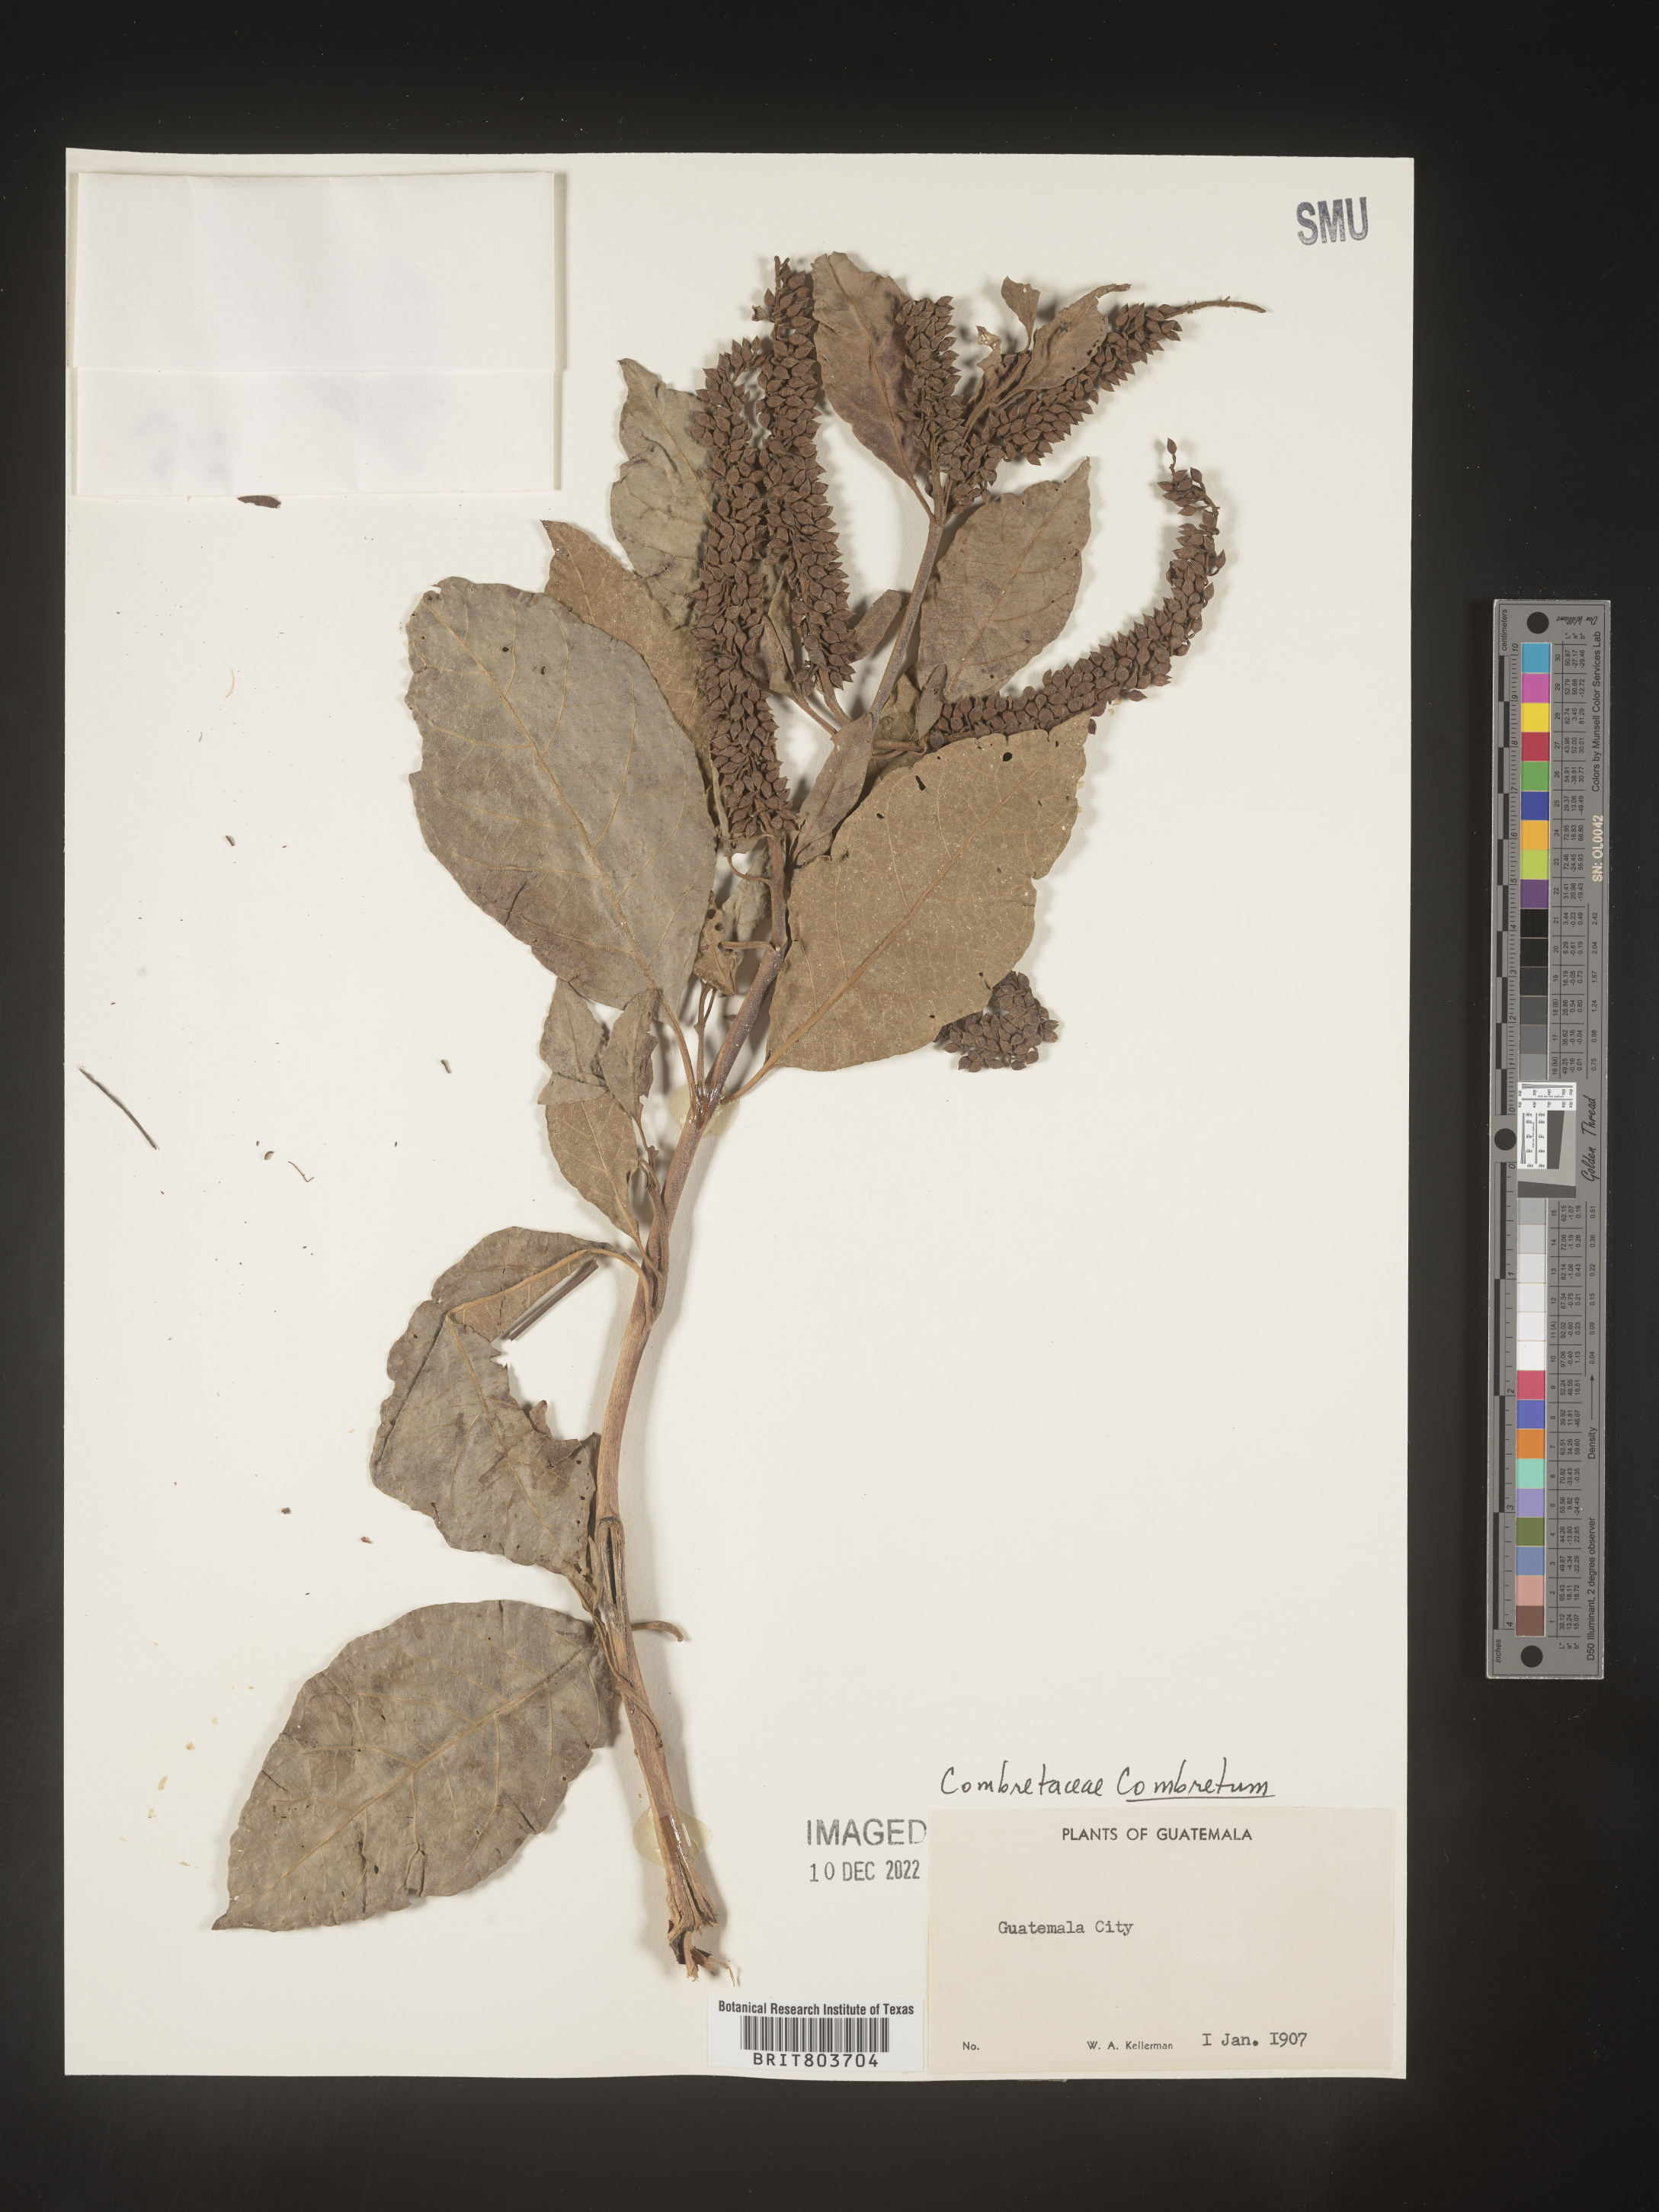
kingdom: Plantae
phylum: Tracheophyta
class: Magnoliopsida
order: Myrtales
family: Combretaceae
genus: Combretum
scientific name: Combretum
